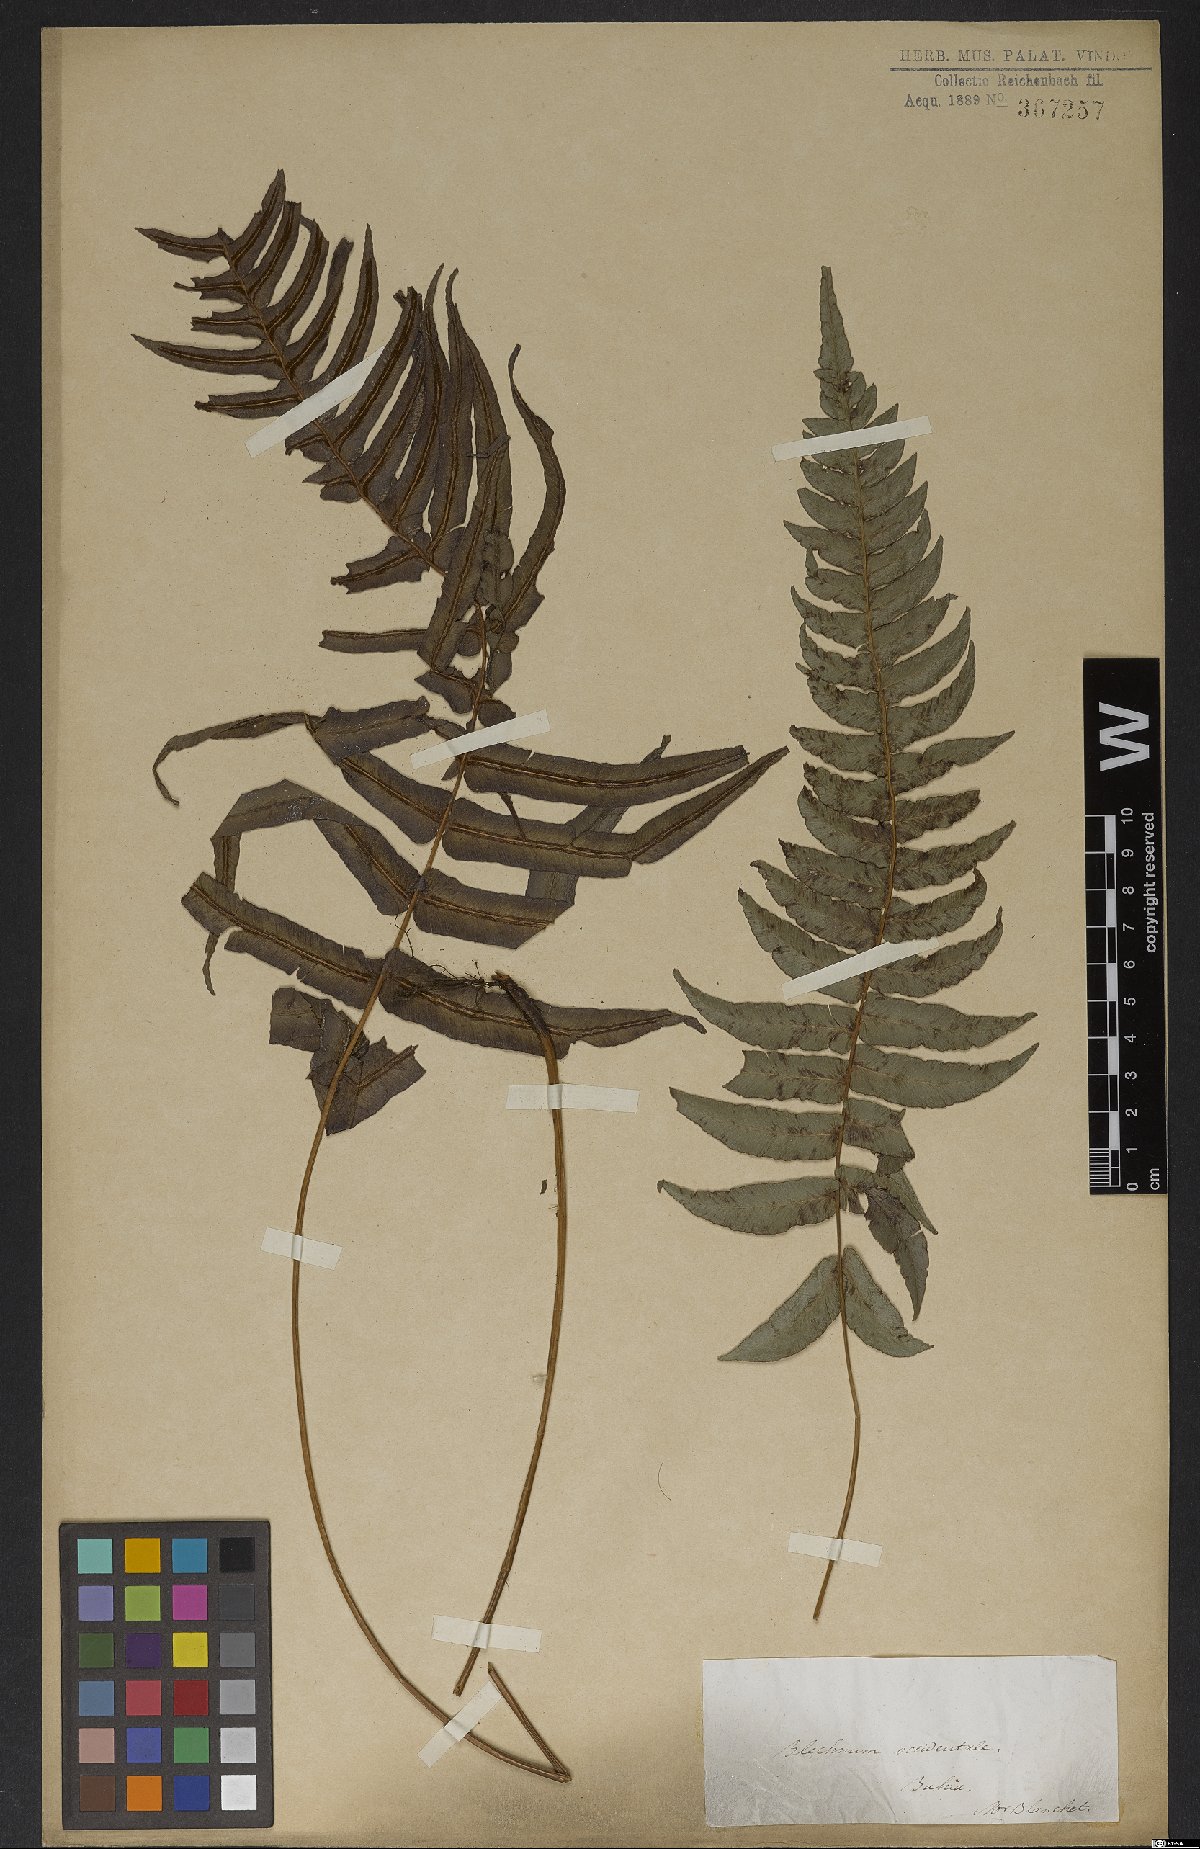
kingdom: Plantae
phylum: Tracheophyta
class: Polypodiopsida
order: Polypodiales
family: Blechnaceae
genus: Blechnum
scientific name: Blechnum occidentale
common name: Hammock fern
